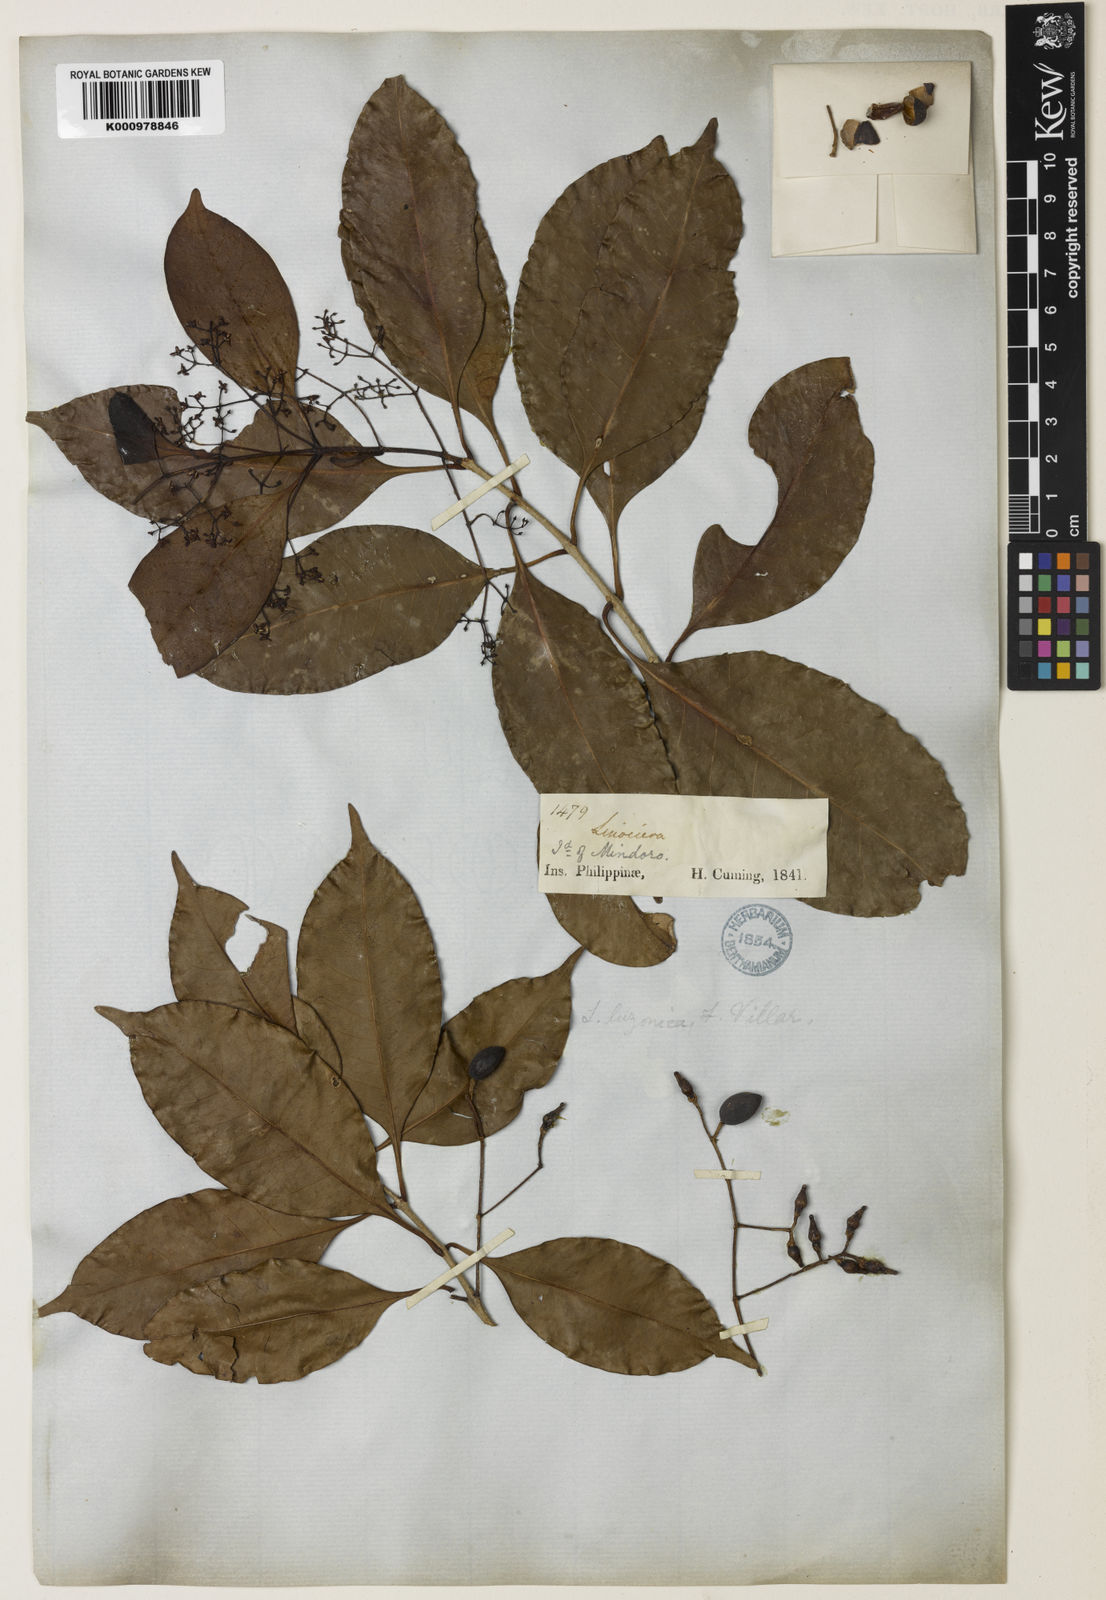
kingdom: Plantae
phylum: Tracheophyta
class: Magnoliopsida
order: Lamiales
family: Oleaceae
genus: Chionanthus
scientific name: Chionanthus ramiflorus
